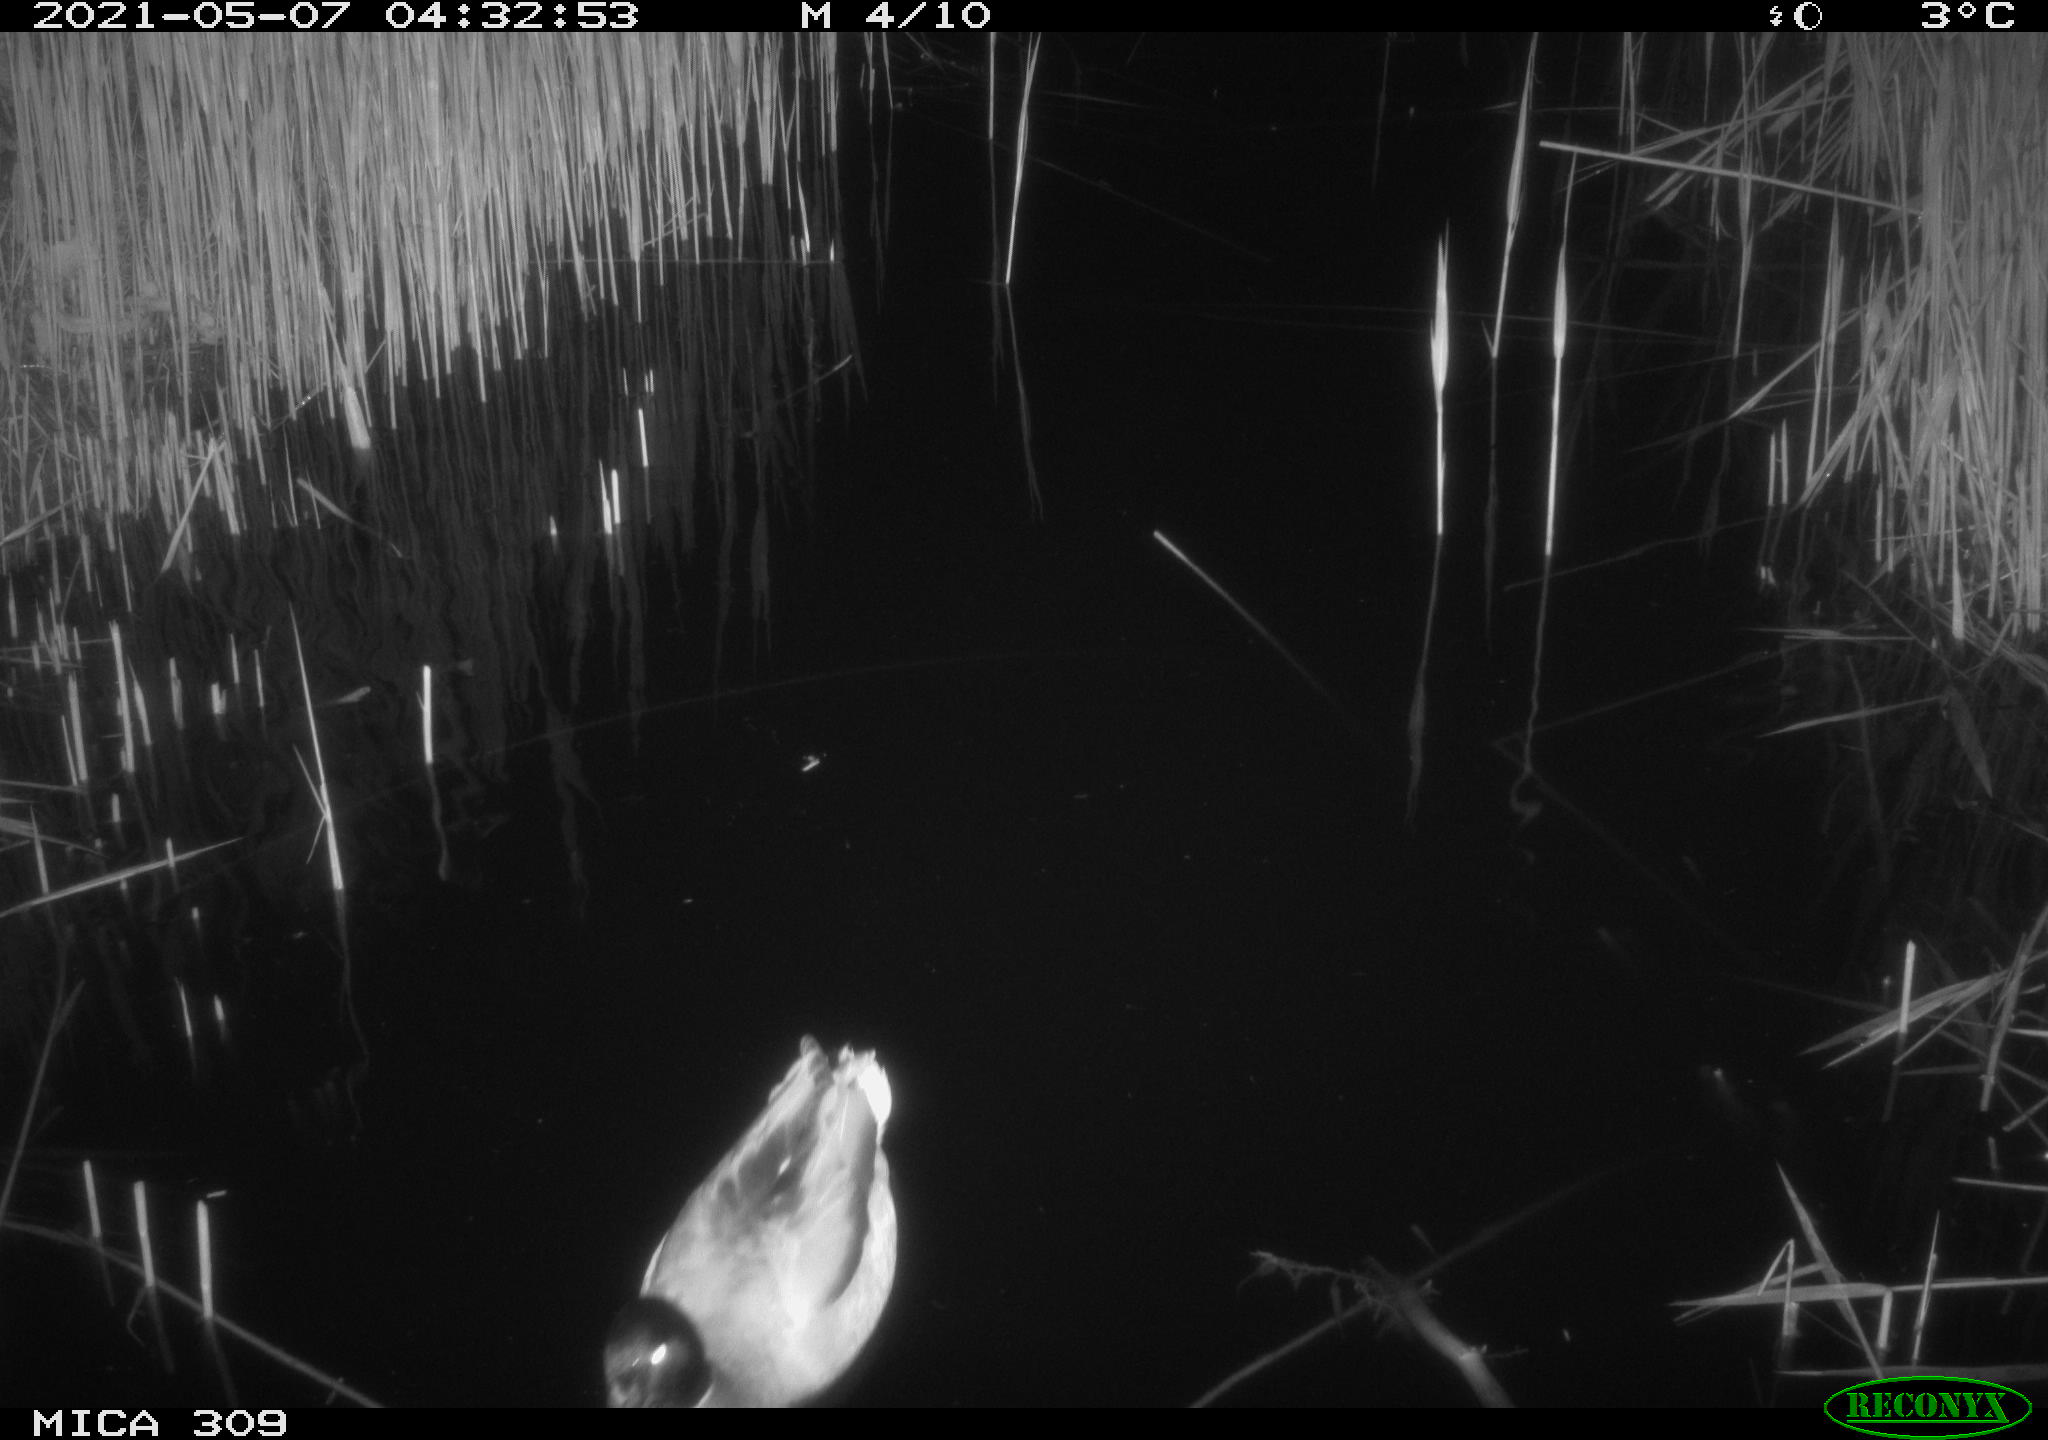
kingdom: Animalia
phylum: Chordata
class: Aves
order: Anseriformes
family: Anatidae
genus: Anas
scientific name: Anas platyrhynchos
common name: Mallard
